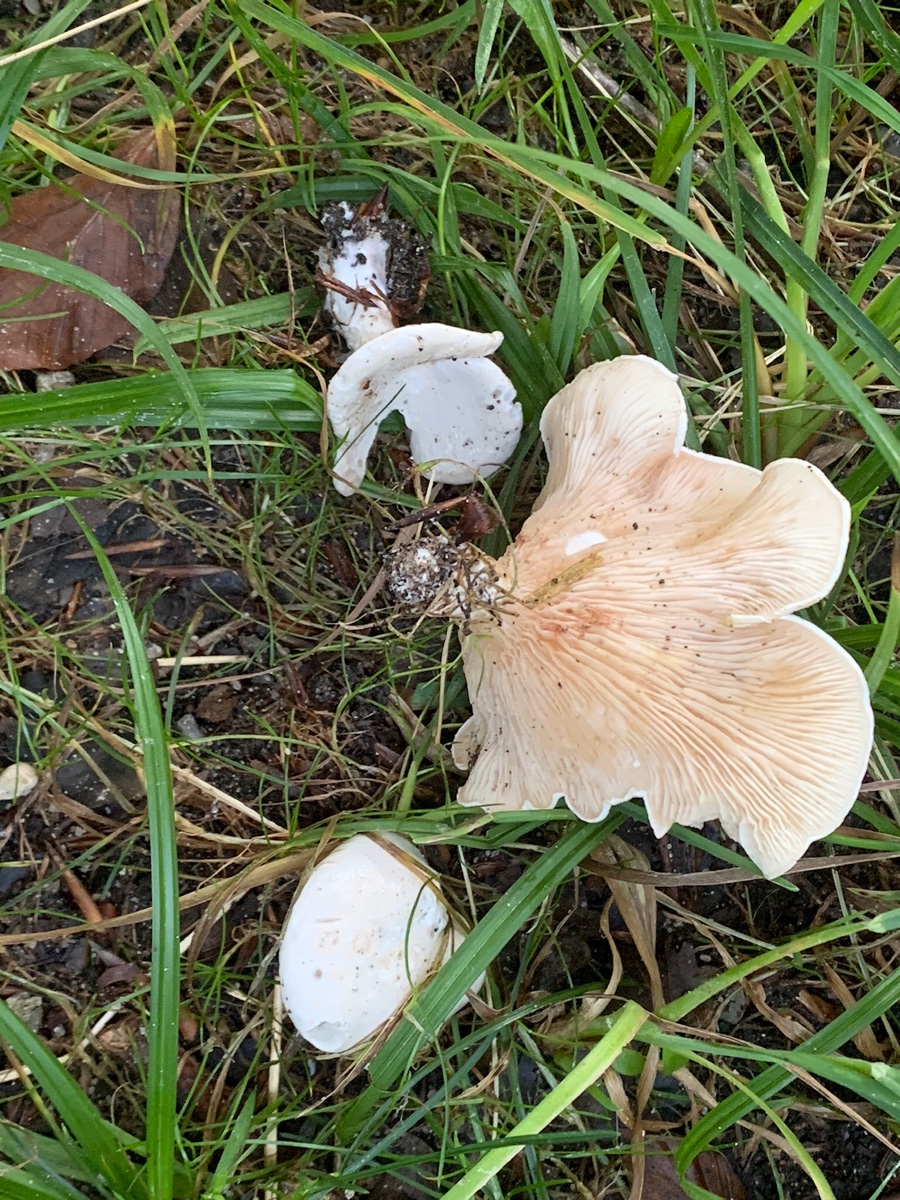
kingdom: Fungi
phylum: Basidiomycota
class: Agaricomycetes
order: Agaricales
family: Entolomataceae
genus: Clitopilus
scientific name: Clitopilus prunulus
